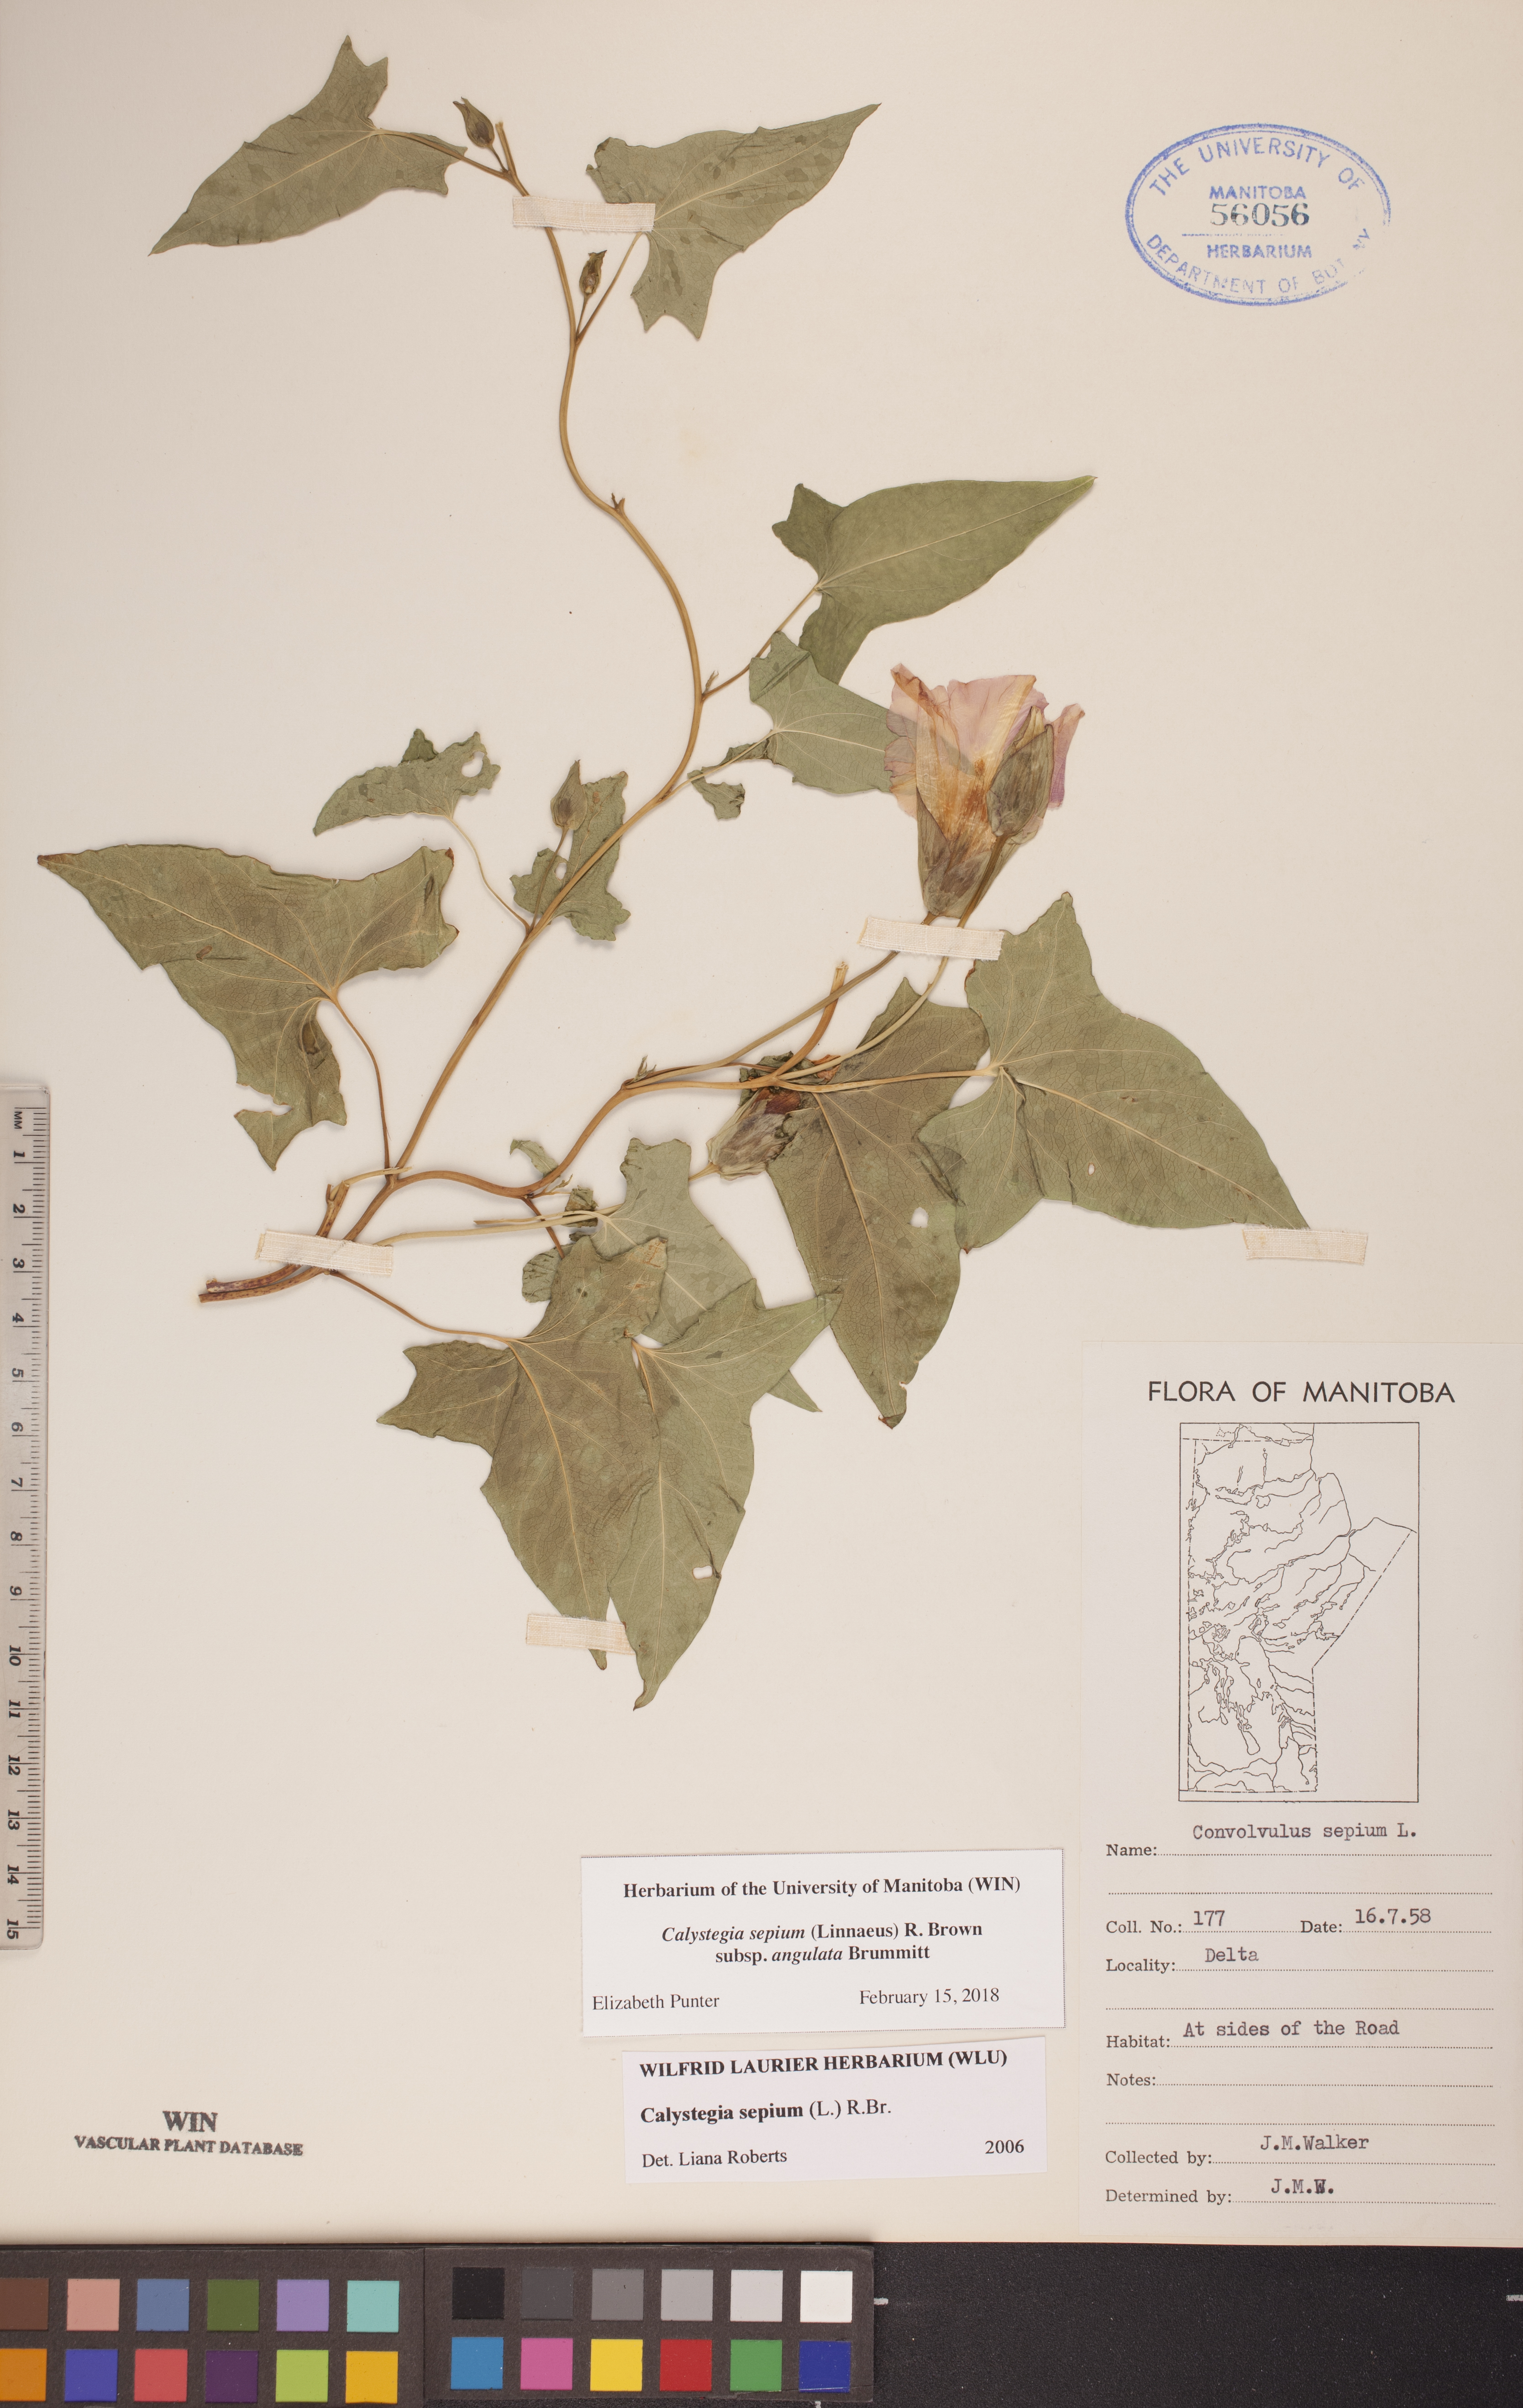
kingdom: Plantae
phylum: Tracheophyta
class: Magnoliopsida
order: Solanales
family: Convolvulaceae
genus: Calystegia
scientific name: Calystegia sepium
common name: Hedge bindweed
